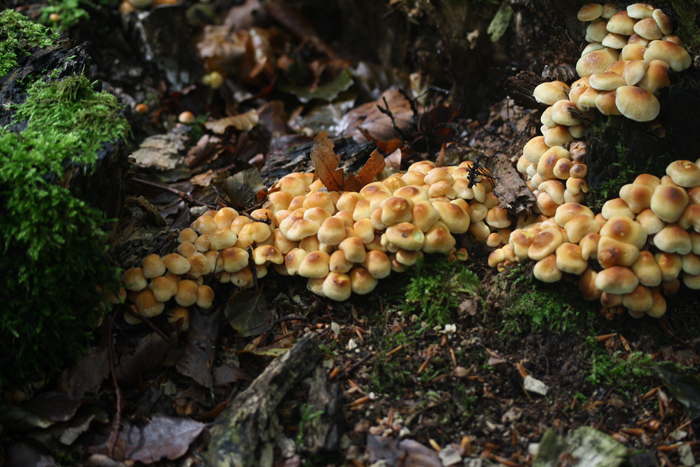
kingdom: Fungi
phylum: Basidiomycota
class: Agaricomycetes
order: Agaricales
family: Strophariaceae
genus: Hypholoma
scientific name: Hypholoma fasciculare
